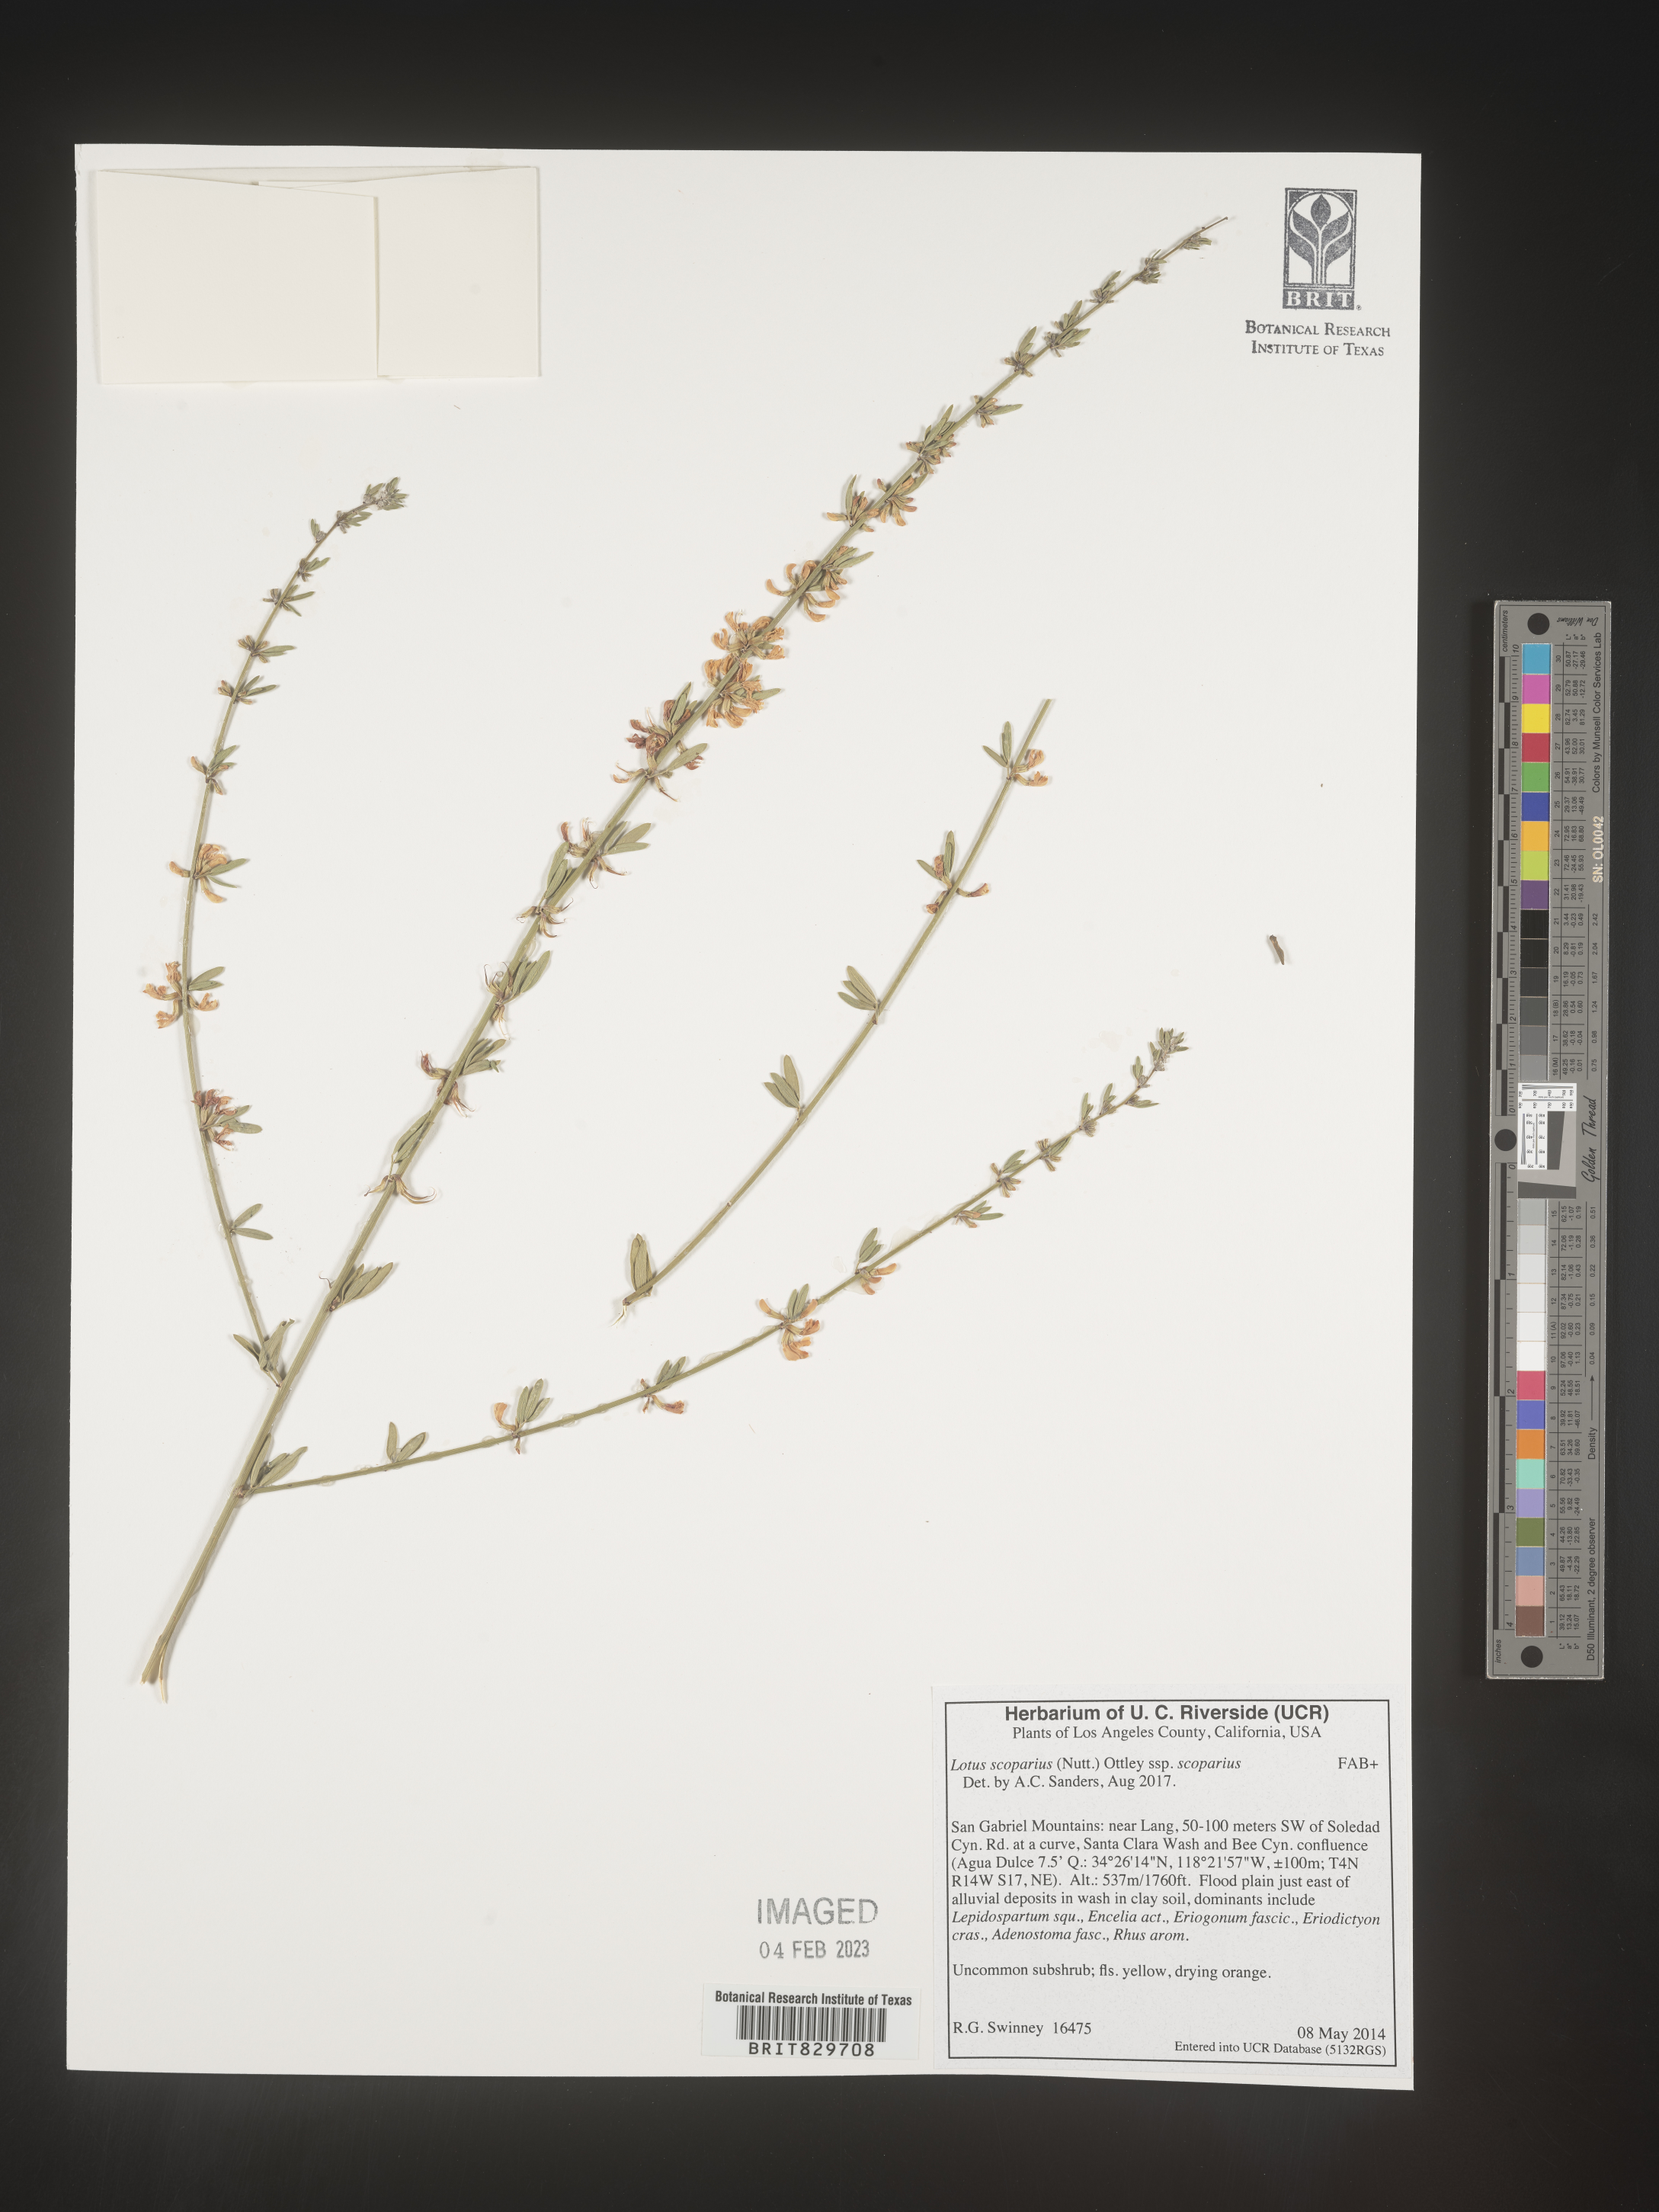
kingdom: Plantae
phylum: Tracheophyta
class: Magnoliopsida
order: Fabales
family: Fabaceae
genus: Acmispon
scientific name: Acmispon glaber
